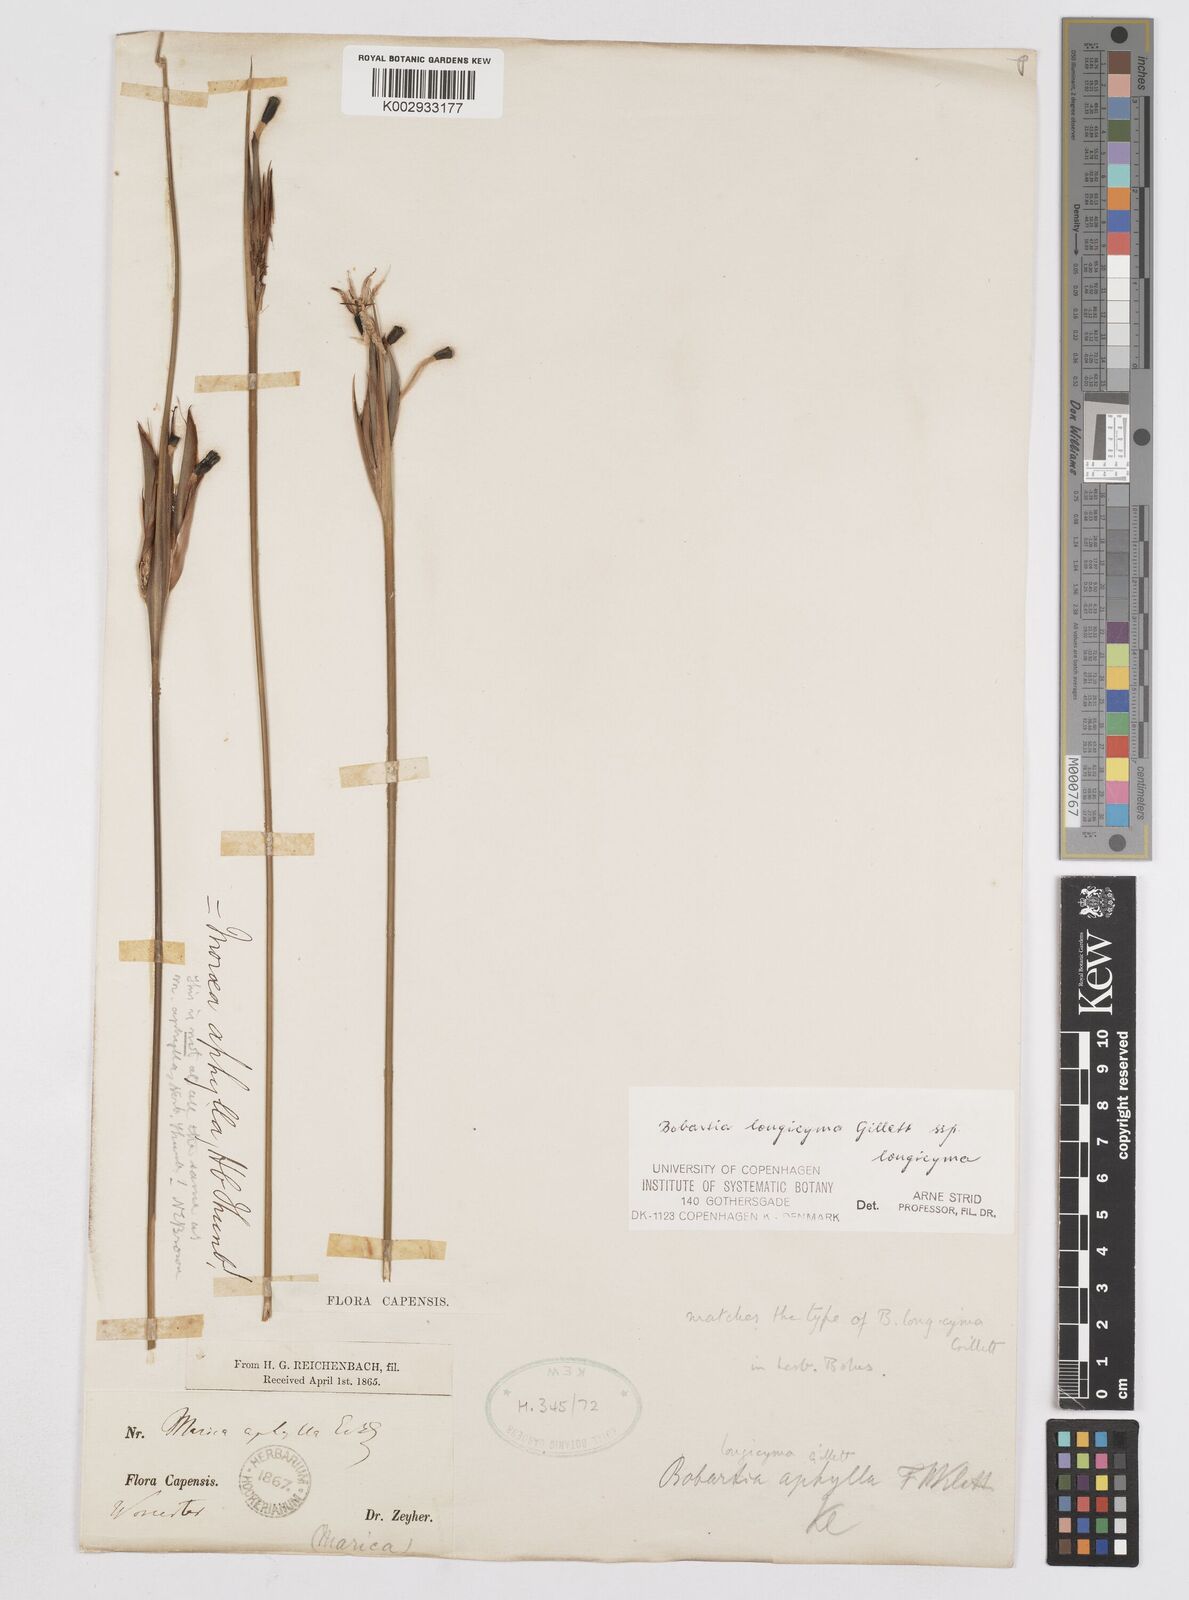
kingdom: Plantae
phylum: Tracheophyta
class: Liliopsida
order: Asparagales
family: Iridaceae
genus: Bobartia
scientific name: Bobartia longicyma
